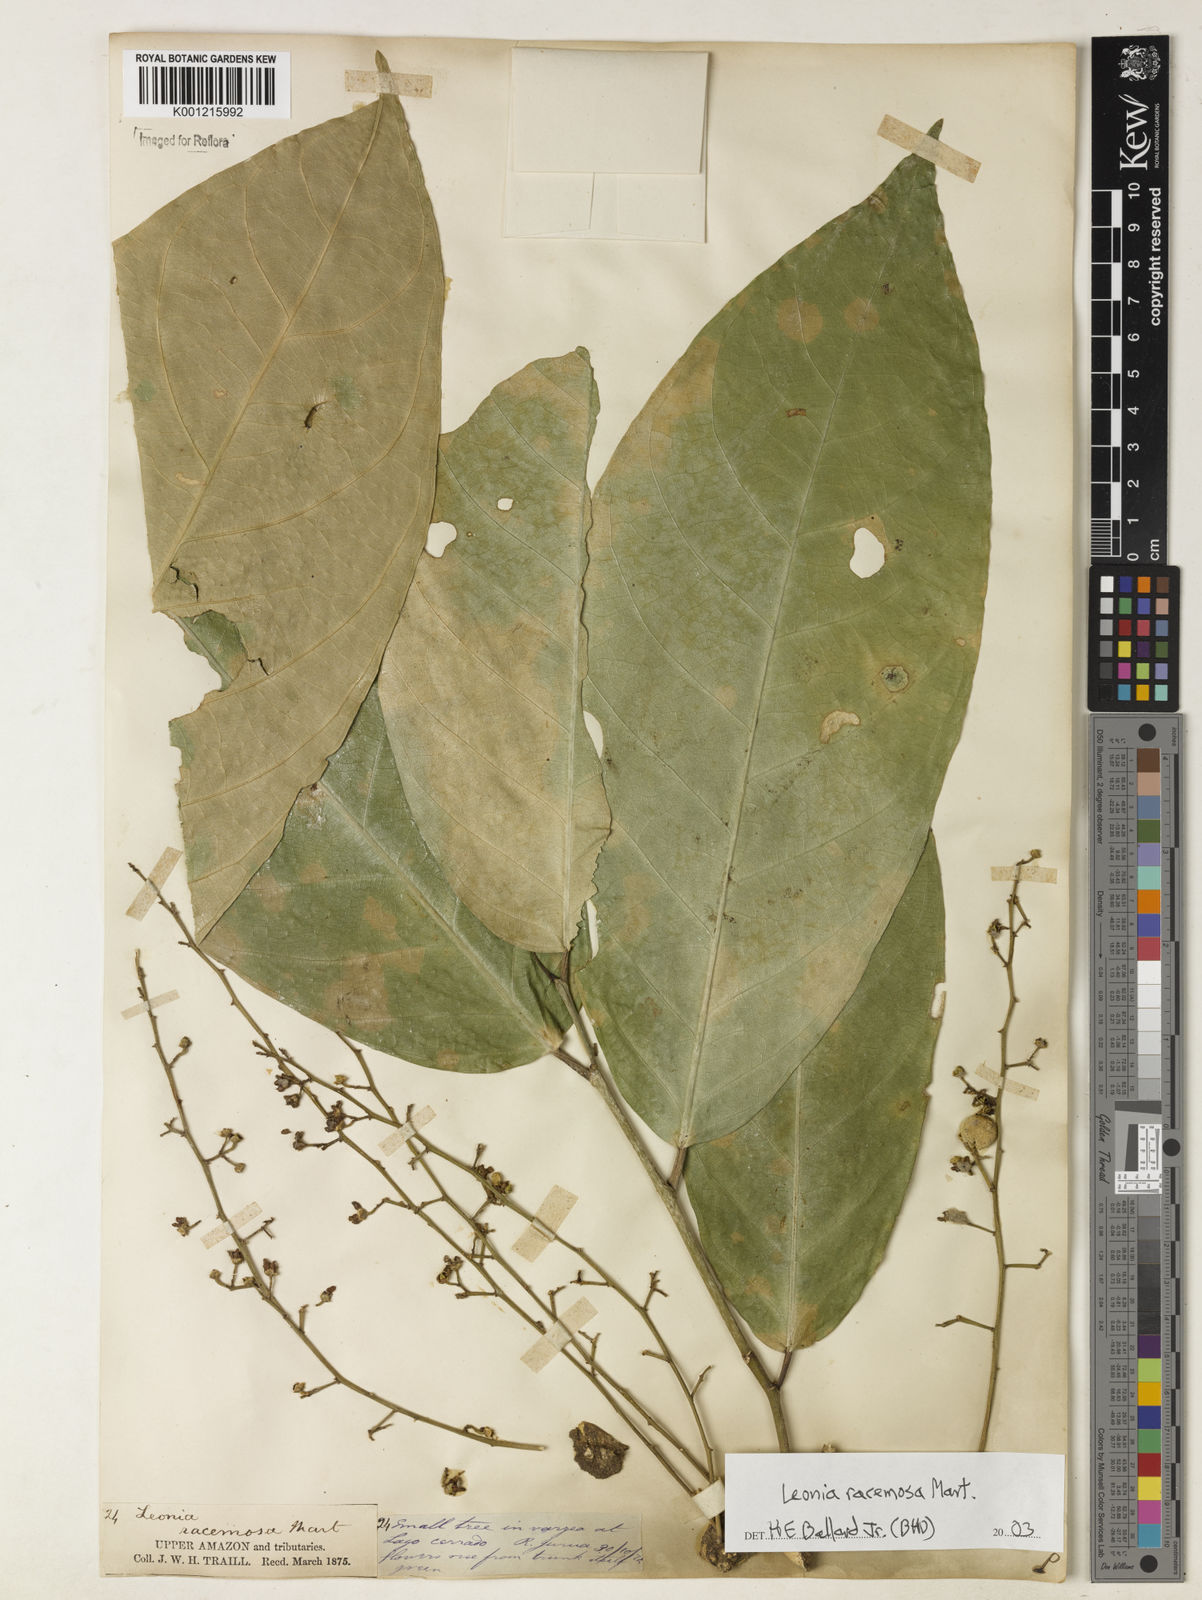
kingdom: Plantae
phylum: Tracheophyta
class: Magnoliopsida
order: Malpighiales
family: Violaceae
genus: Leonia
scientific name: Leonia glycycarpa
